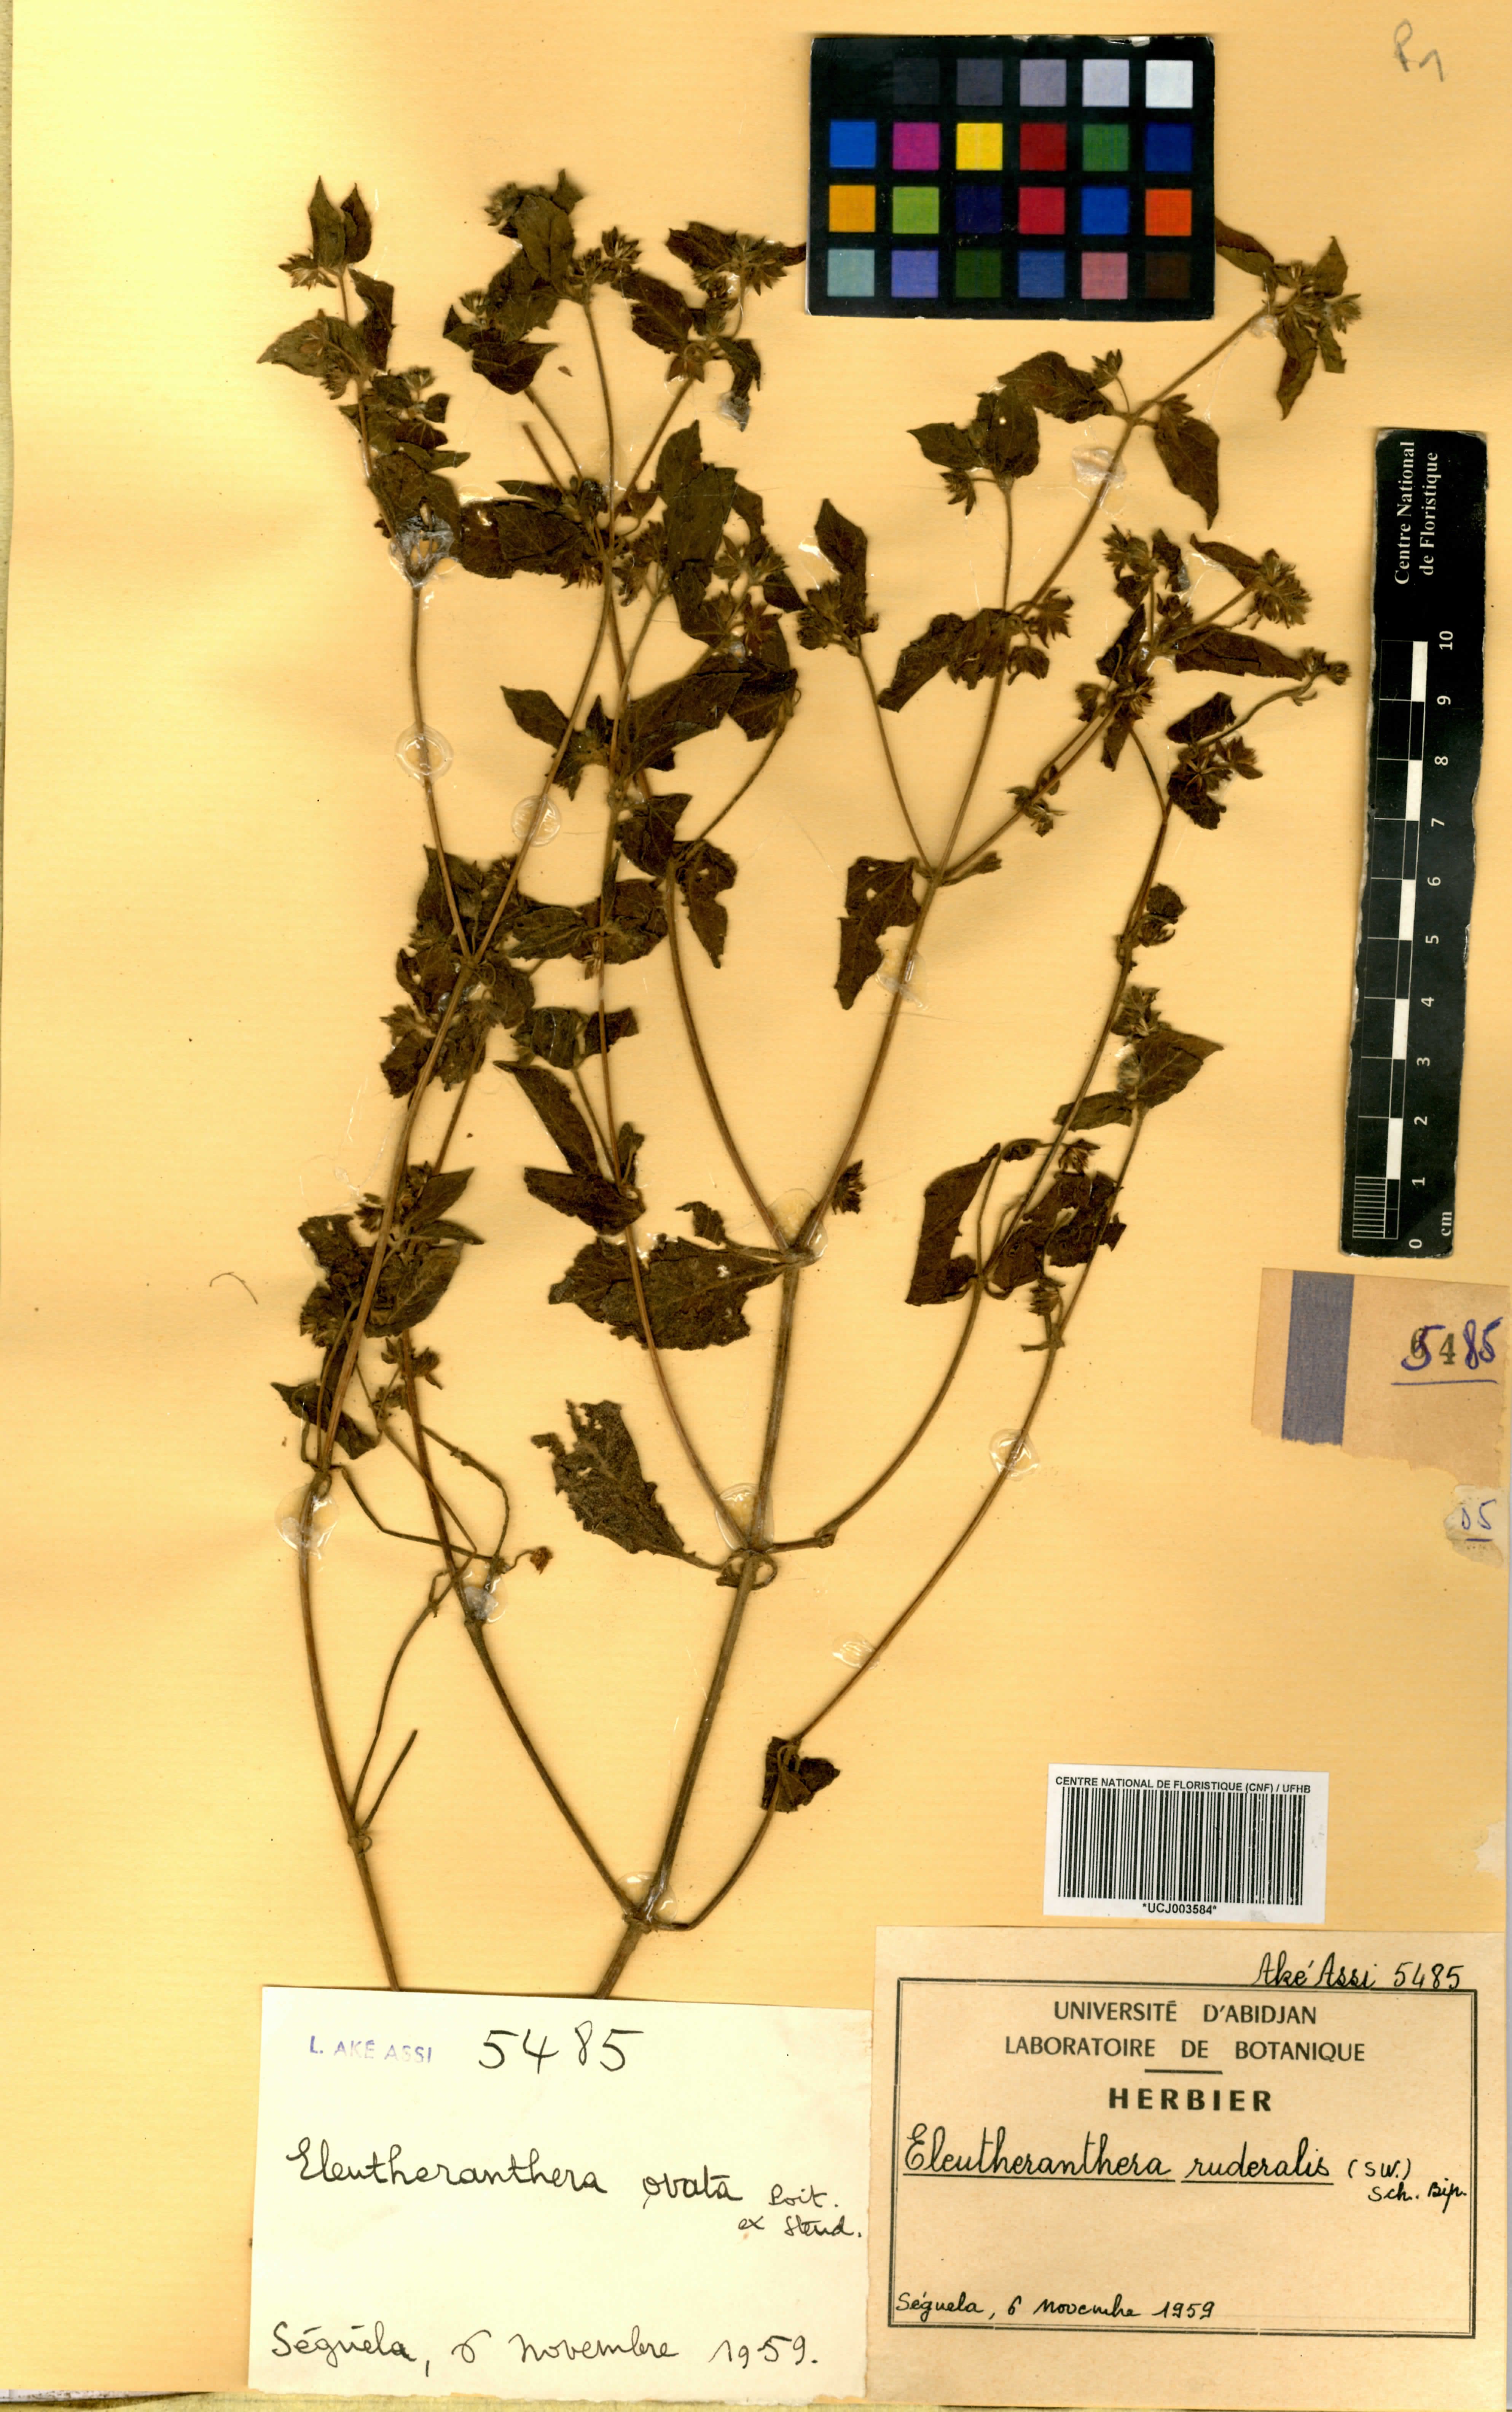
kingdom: Plantae
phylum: Tracheophyta
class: Magnoliopsida
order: Asterales
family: Asteraceae
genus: Eleutheranthera
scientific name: Eleutheranthera ruderalis
